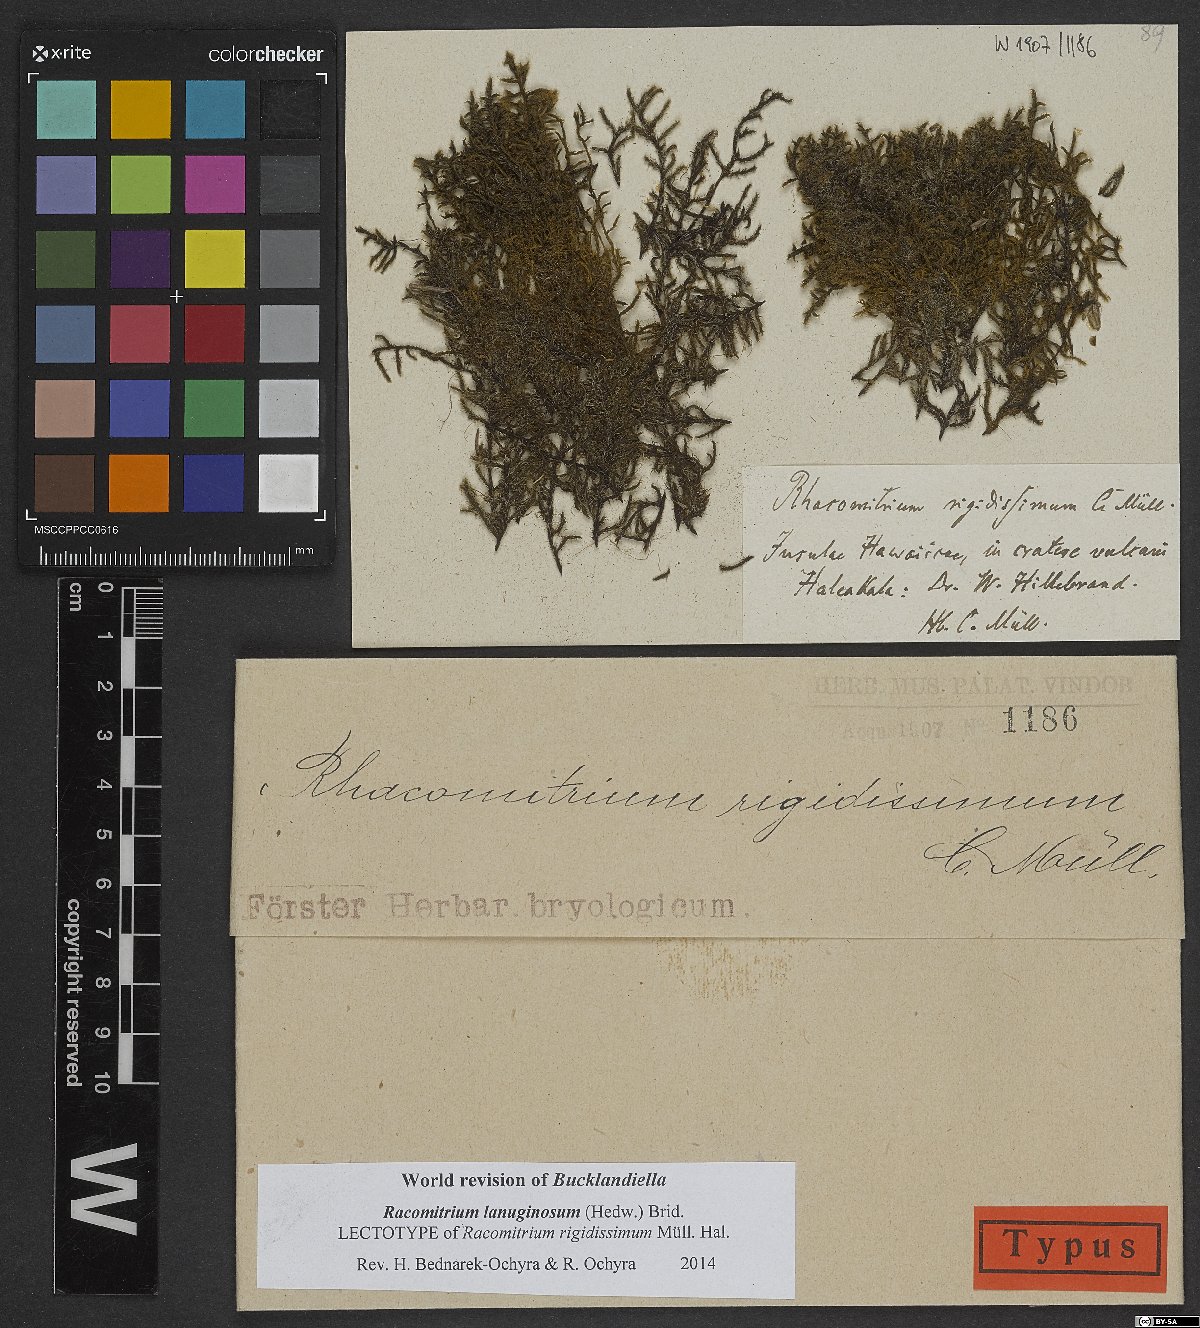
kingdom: Plantae
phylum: Bryophyta
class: Bryopsida
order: Grimmiales
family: Grimmiaceae
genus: Racomitrium
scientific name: Racomitrium lanuginosum
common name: Hoary rock moss
